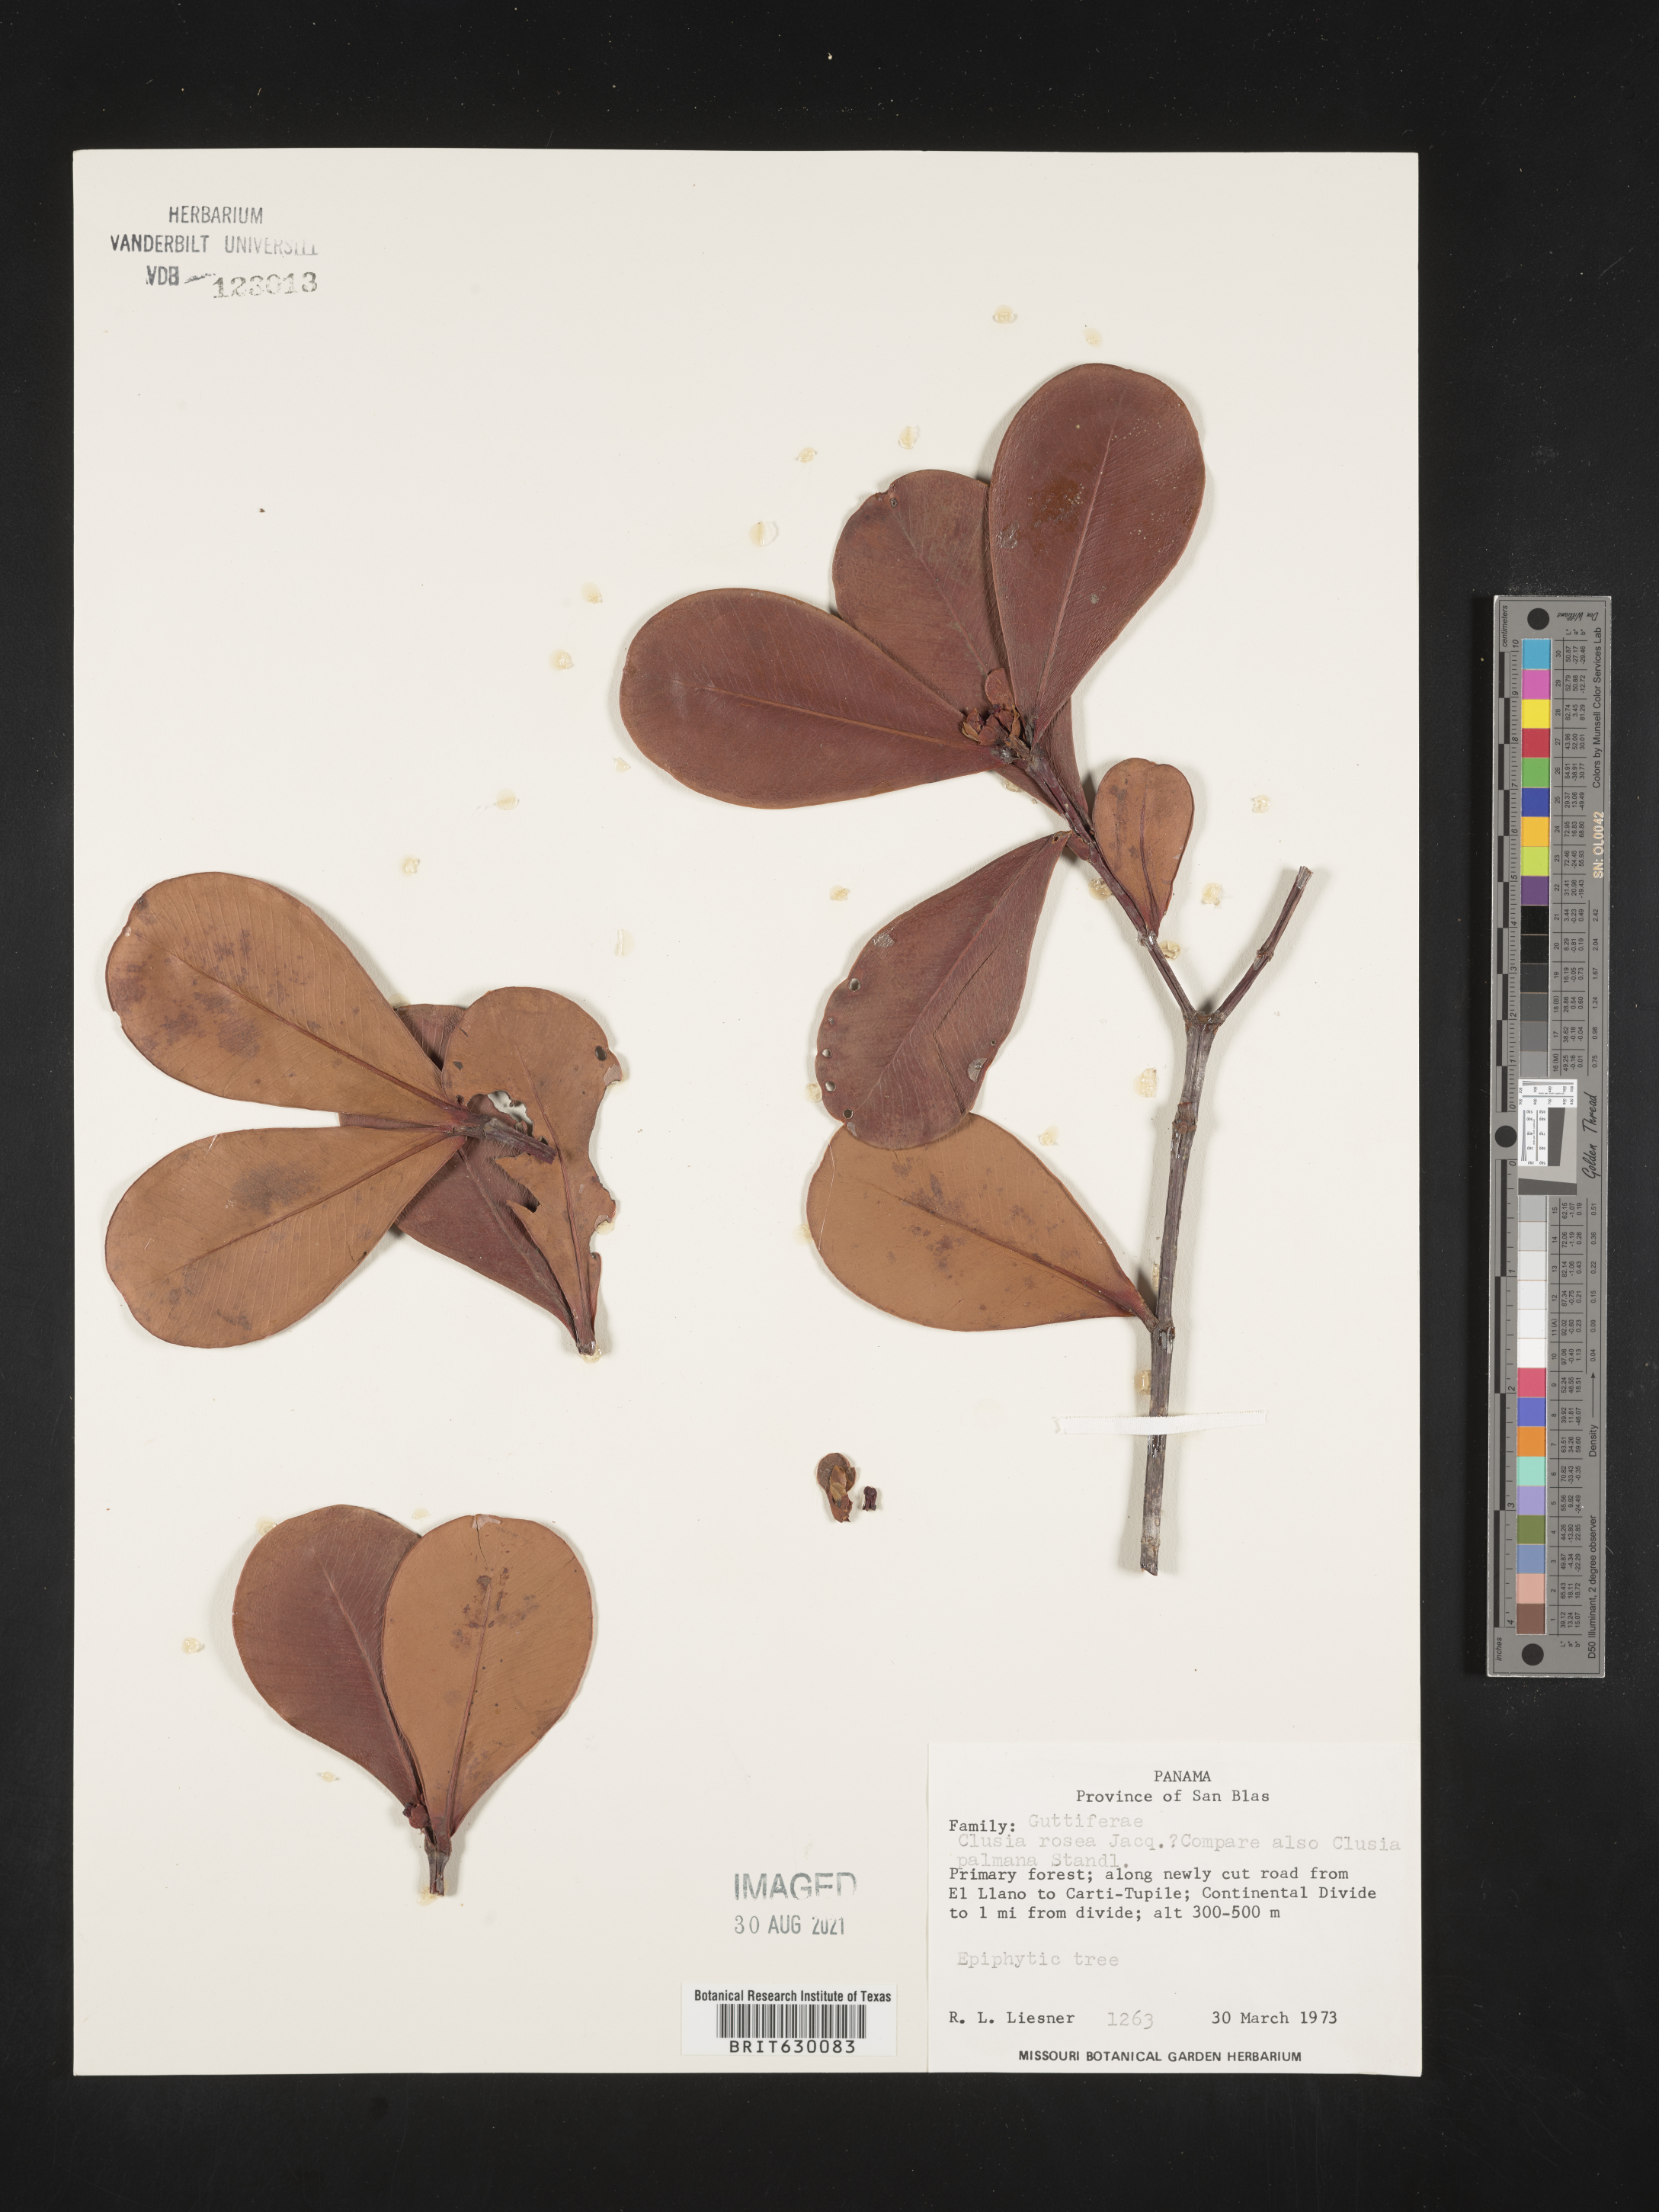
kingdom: Plantae
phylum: Tracheophyta
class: Magnoliopsida
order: Malpighiales
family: Clusiaceae
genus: Clusia
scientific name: Clusia rosea
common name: Scotch attorney
